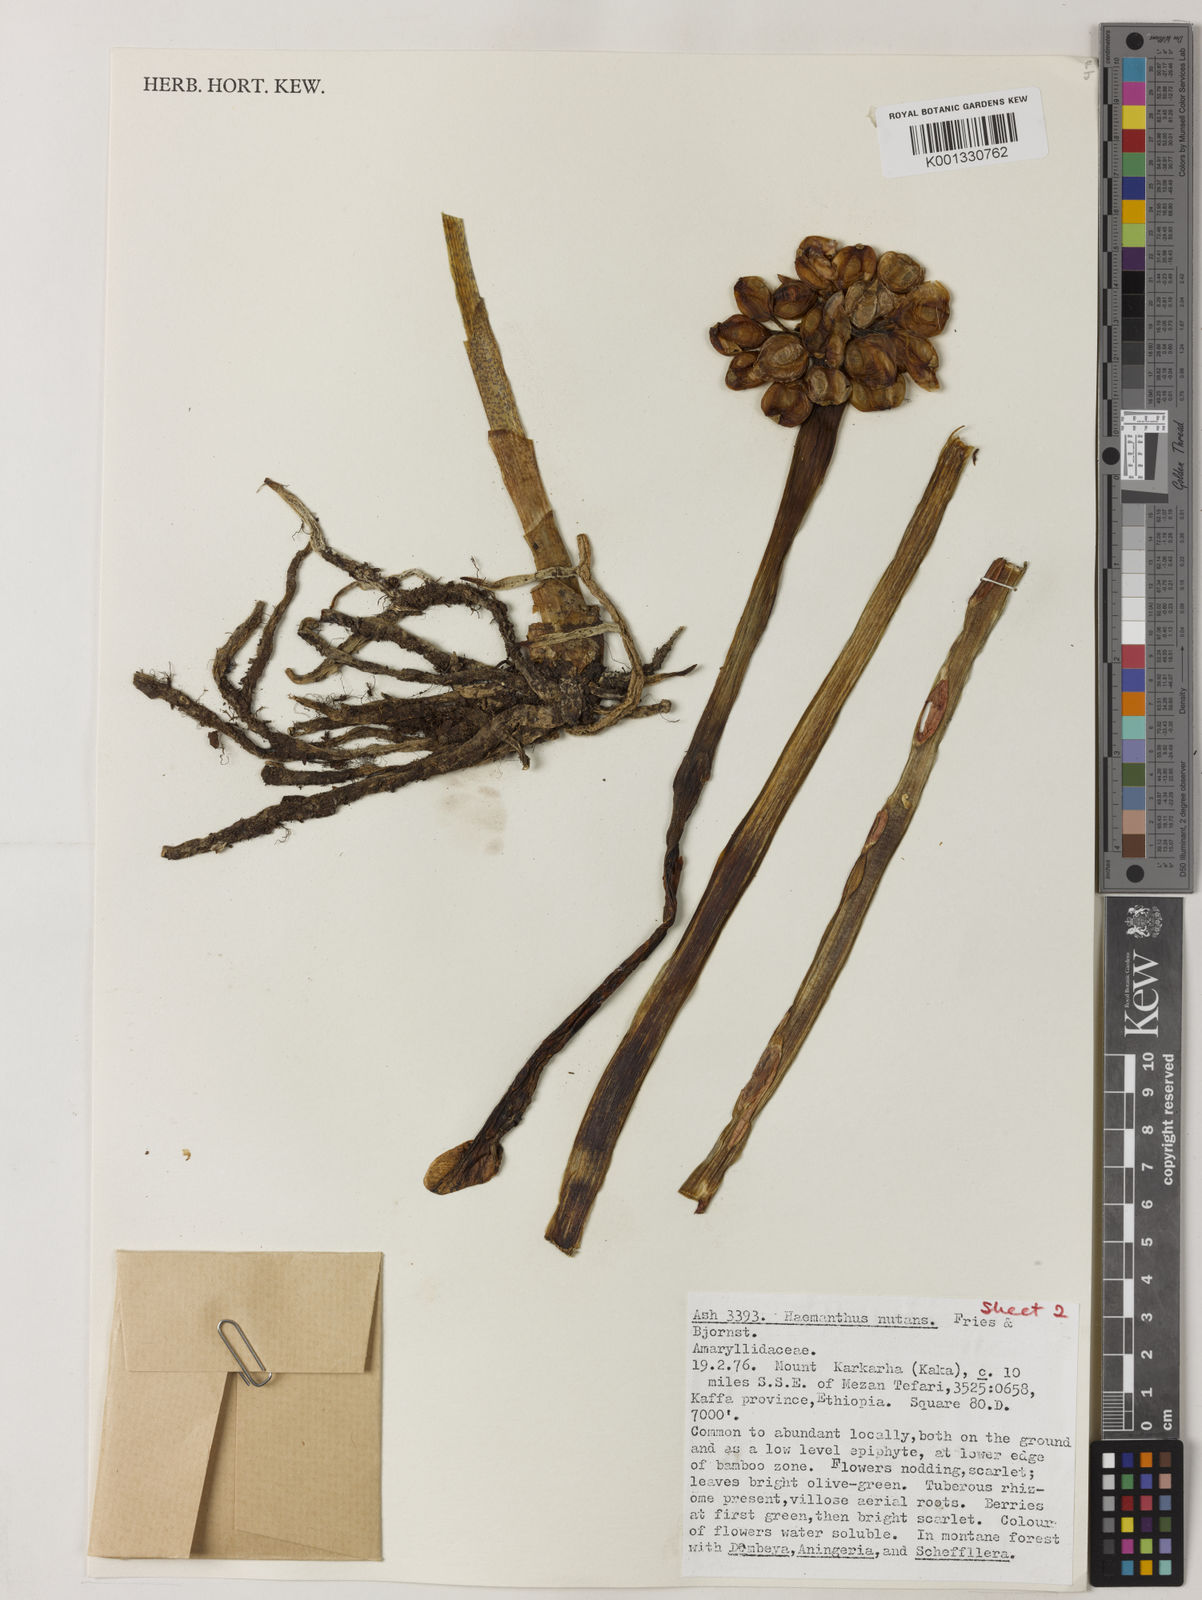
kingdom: Plantae
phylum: Tracheophyta
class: Liliopsida
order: Asparagales
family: Amaryllidaceae
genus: Scadoxus
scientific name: Scadoxus nutans
